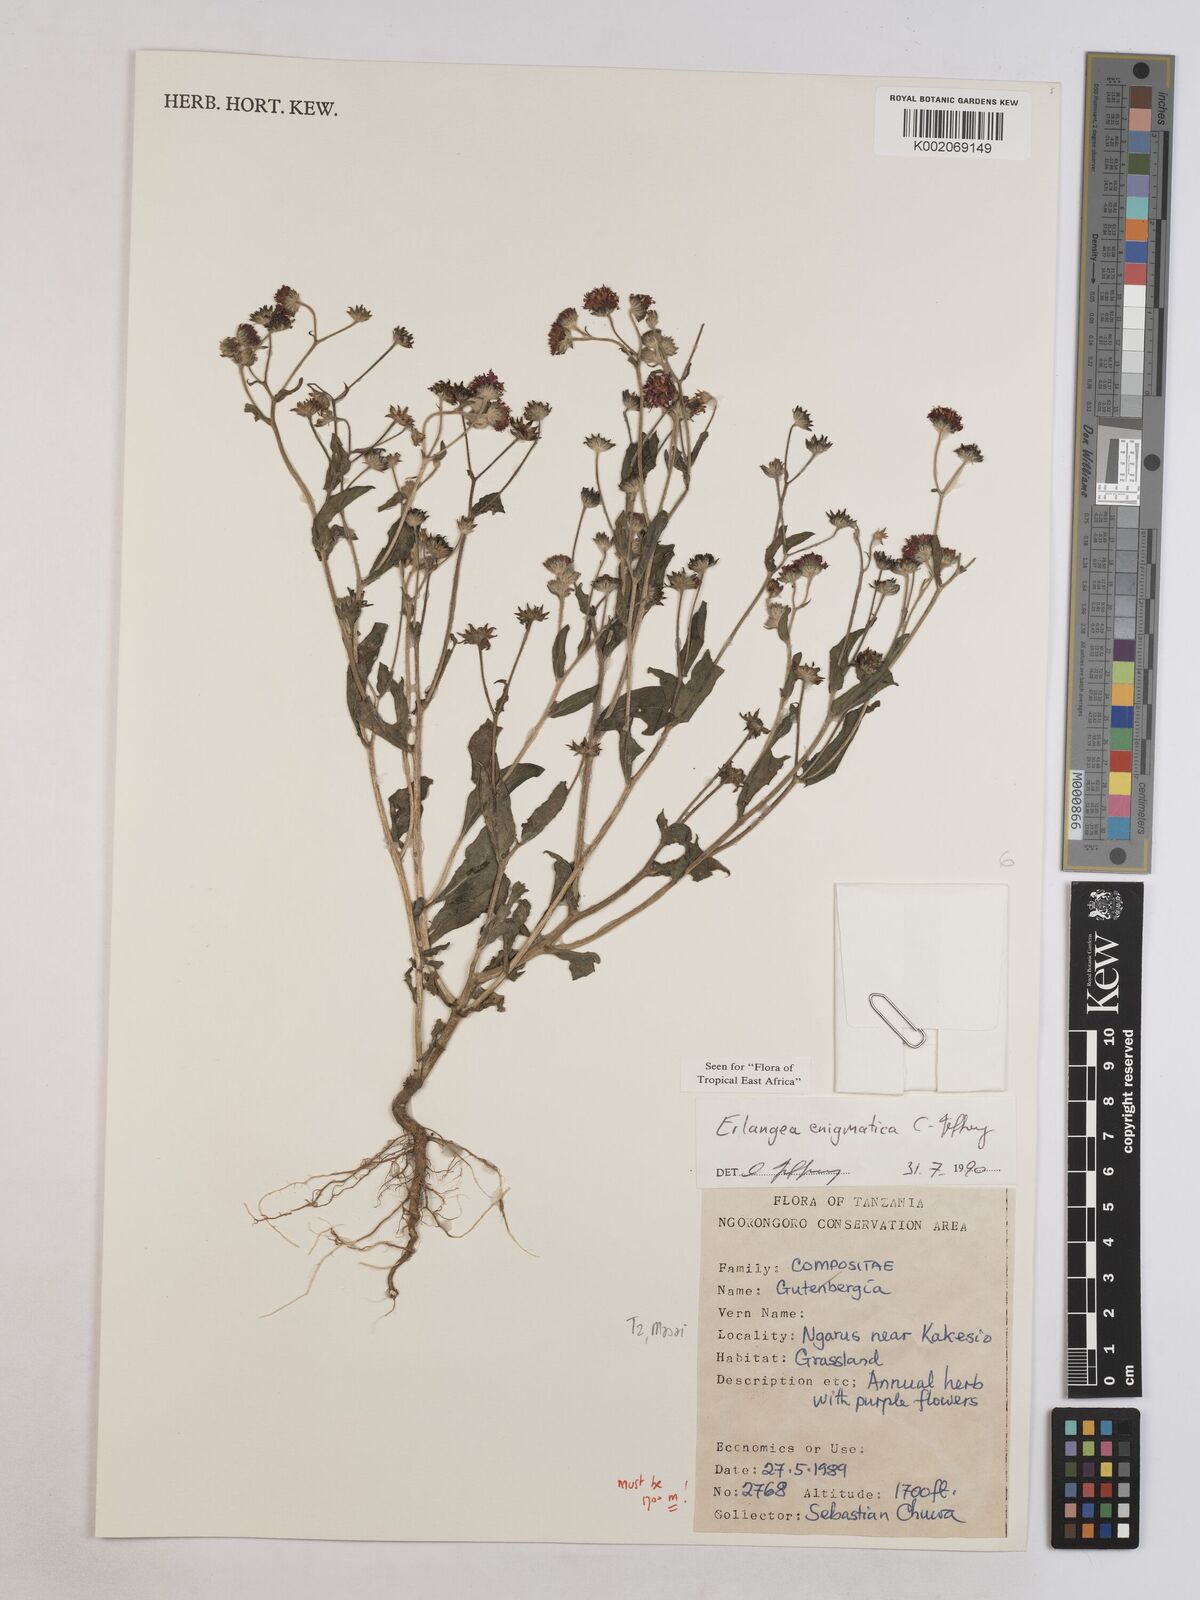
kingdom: Plantae
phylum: Tracheophyta
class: Magnoliopsida
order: Asterales
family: Asteraceae
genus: Erlangea
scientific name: Erlangea enigmatica
